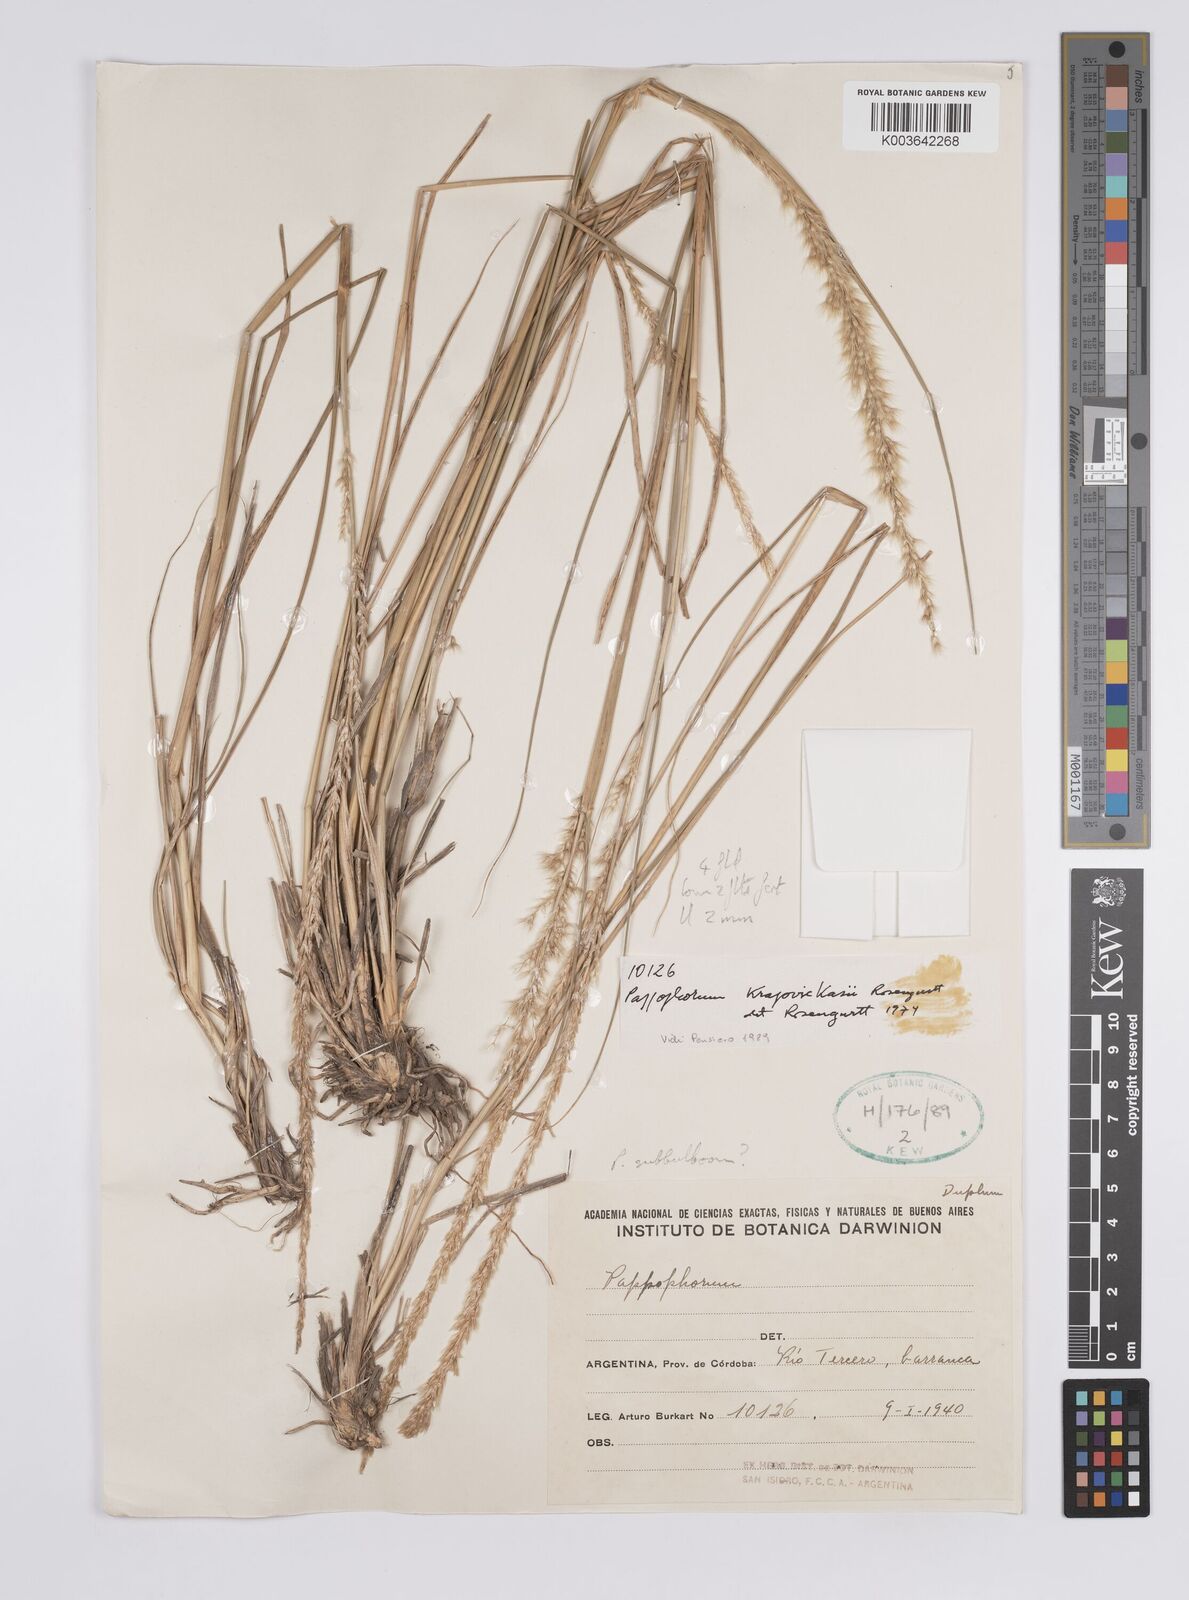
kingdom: Plantae
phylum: Tracheophyta
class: Liliopsida
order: Poales
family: Poaceae
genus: Pappophorum
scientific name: Pappophorum krapovickasii
